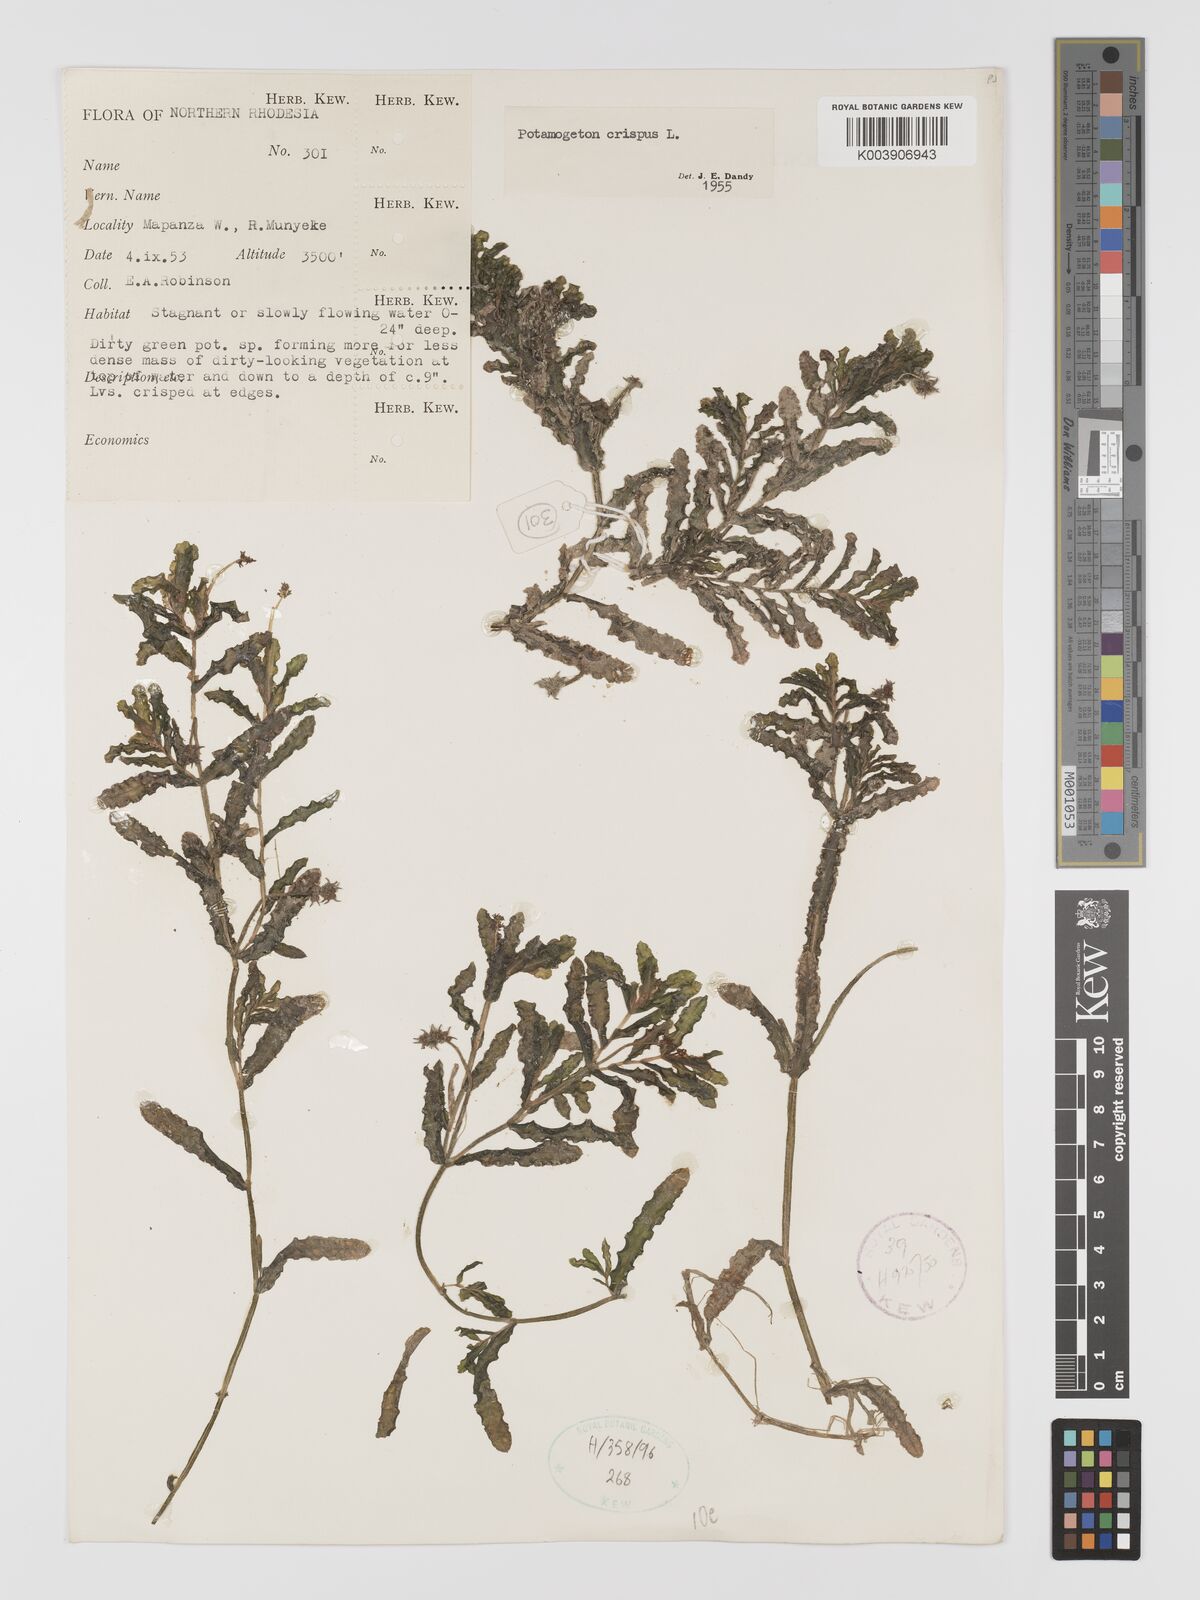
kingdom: Plantae
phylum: Tracheophyta
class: Liliopsida
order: Alismatales
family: Potamogetonaceae
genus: Potamogeton
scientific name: Potamogeton crispus
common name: Curled pondweed
